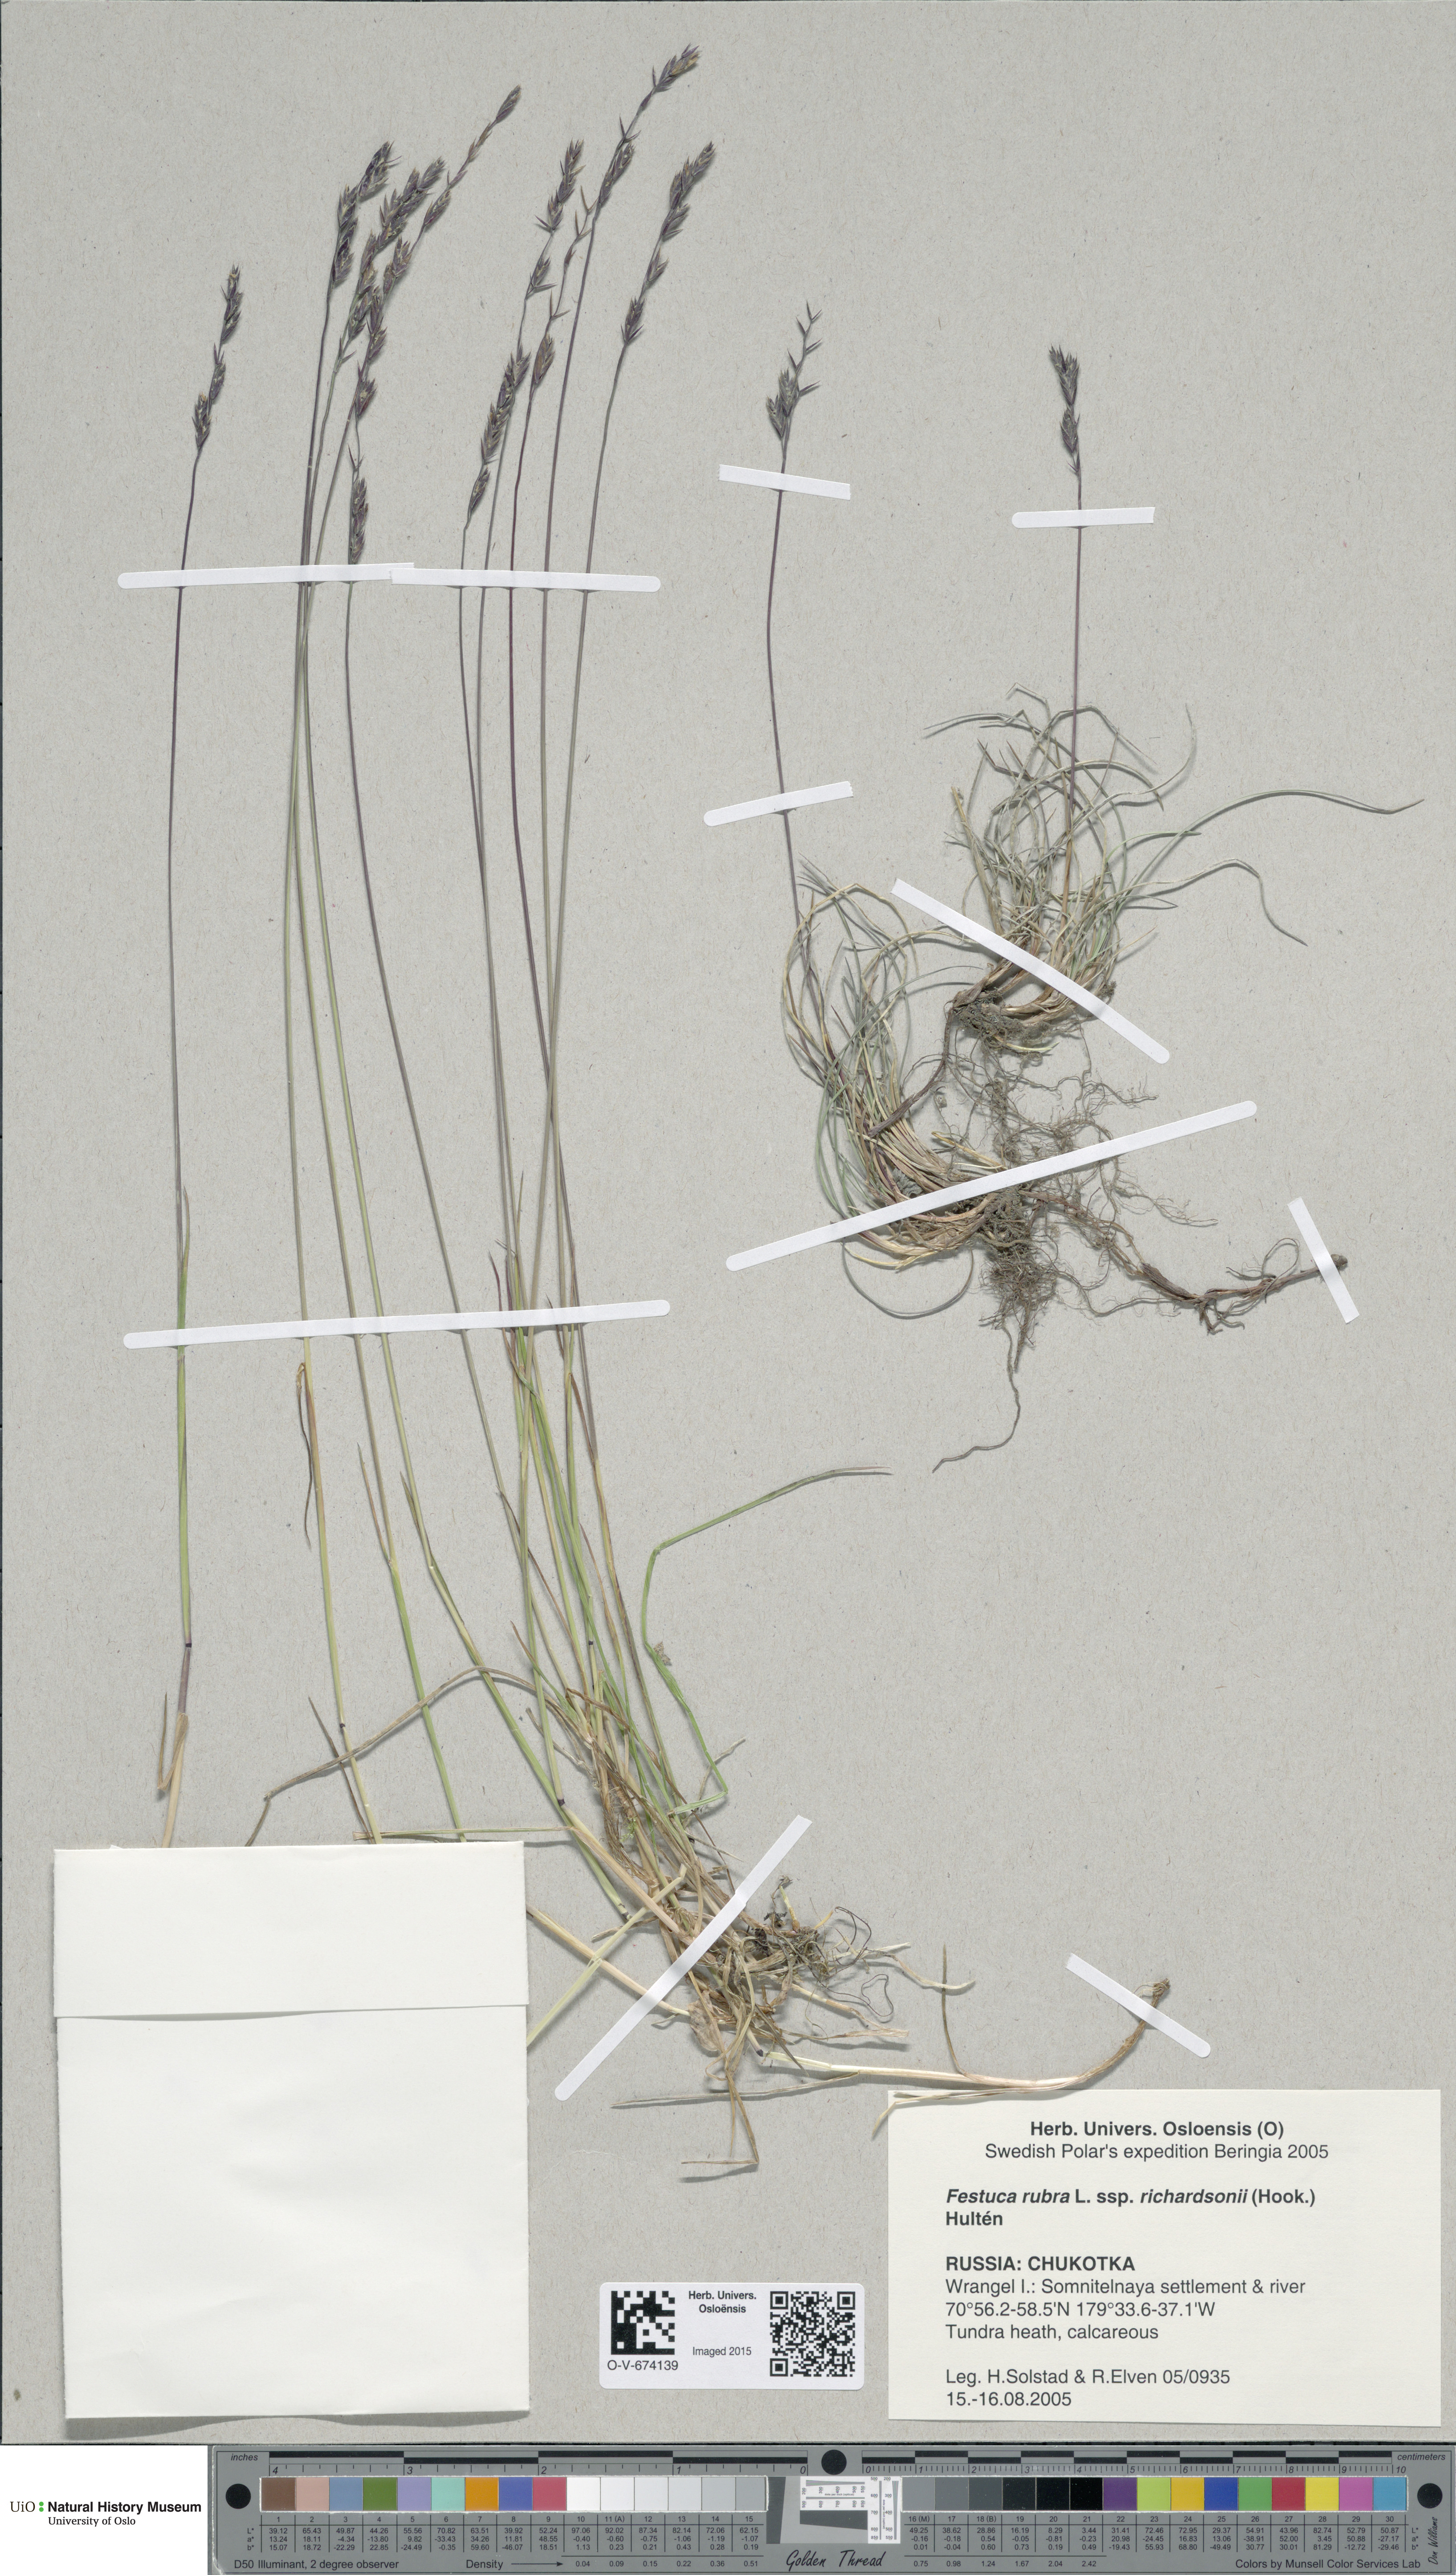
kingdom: Plantae
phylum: Tracheophyta
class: Liliopsida
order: Poales
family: Poaceae
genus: Festuca
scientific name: Festuca richardsonii
